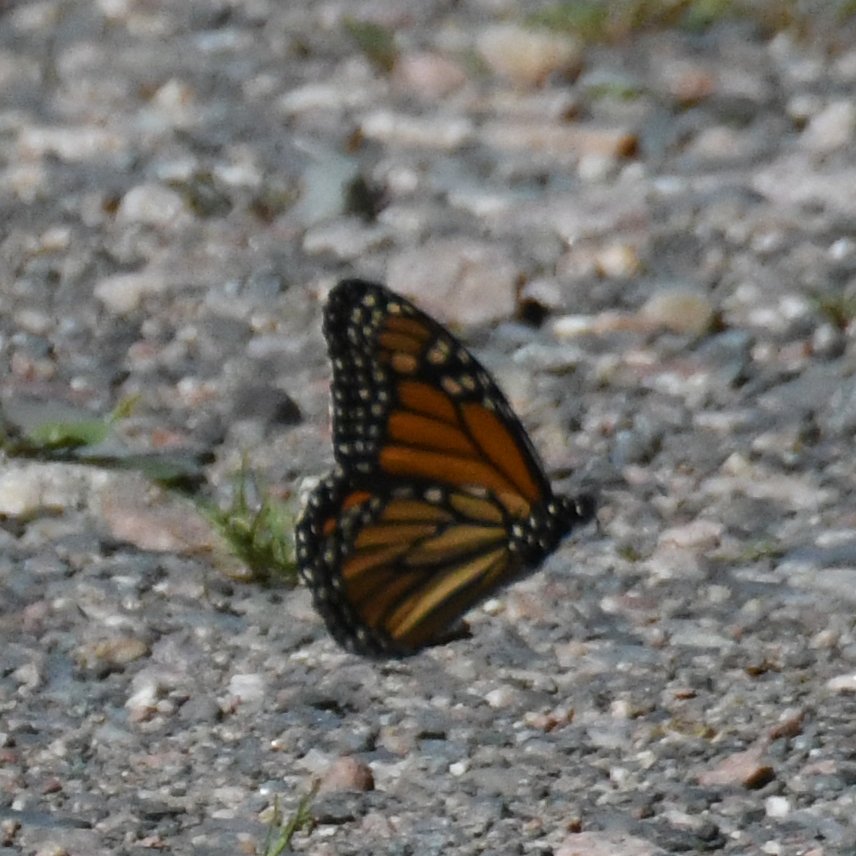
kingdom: Animalia
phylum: Arthropoda
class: Insecta
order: Lepidoptera
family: Nymphalidae
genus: Danaus
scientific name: Danaus plexippus
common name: Monarch
